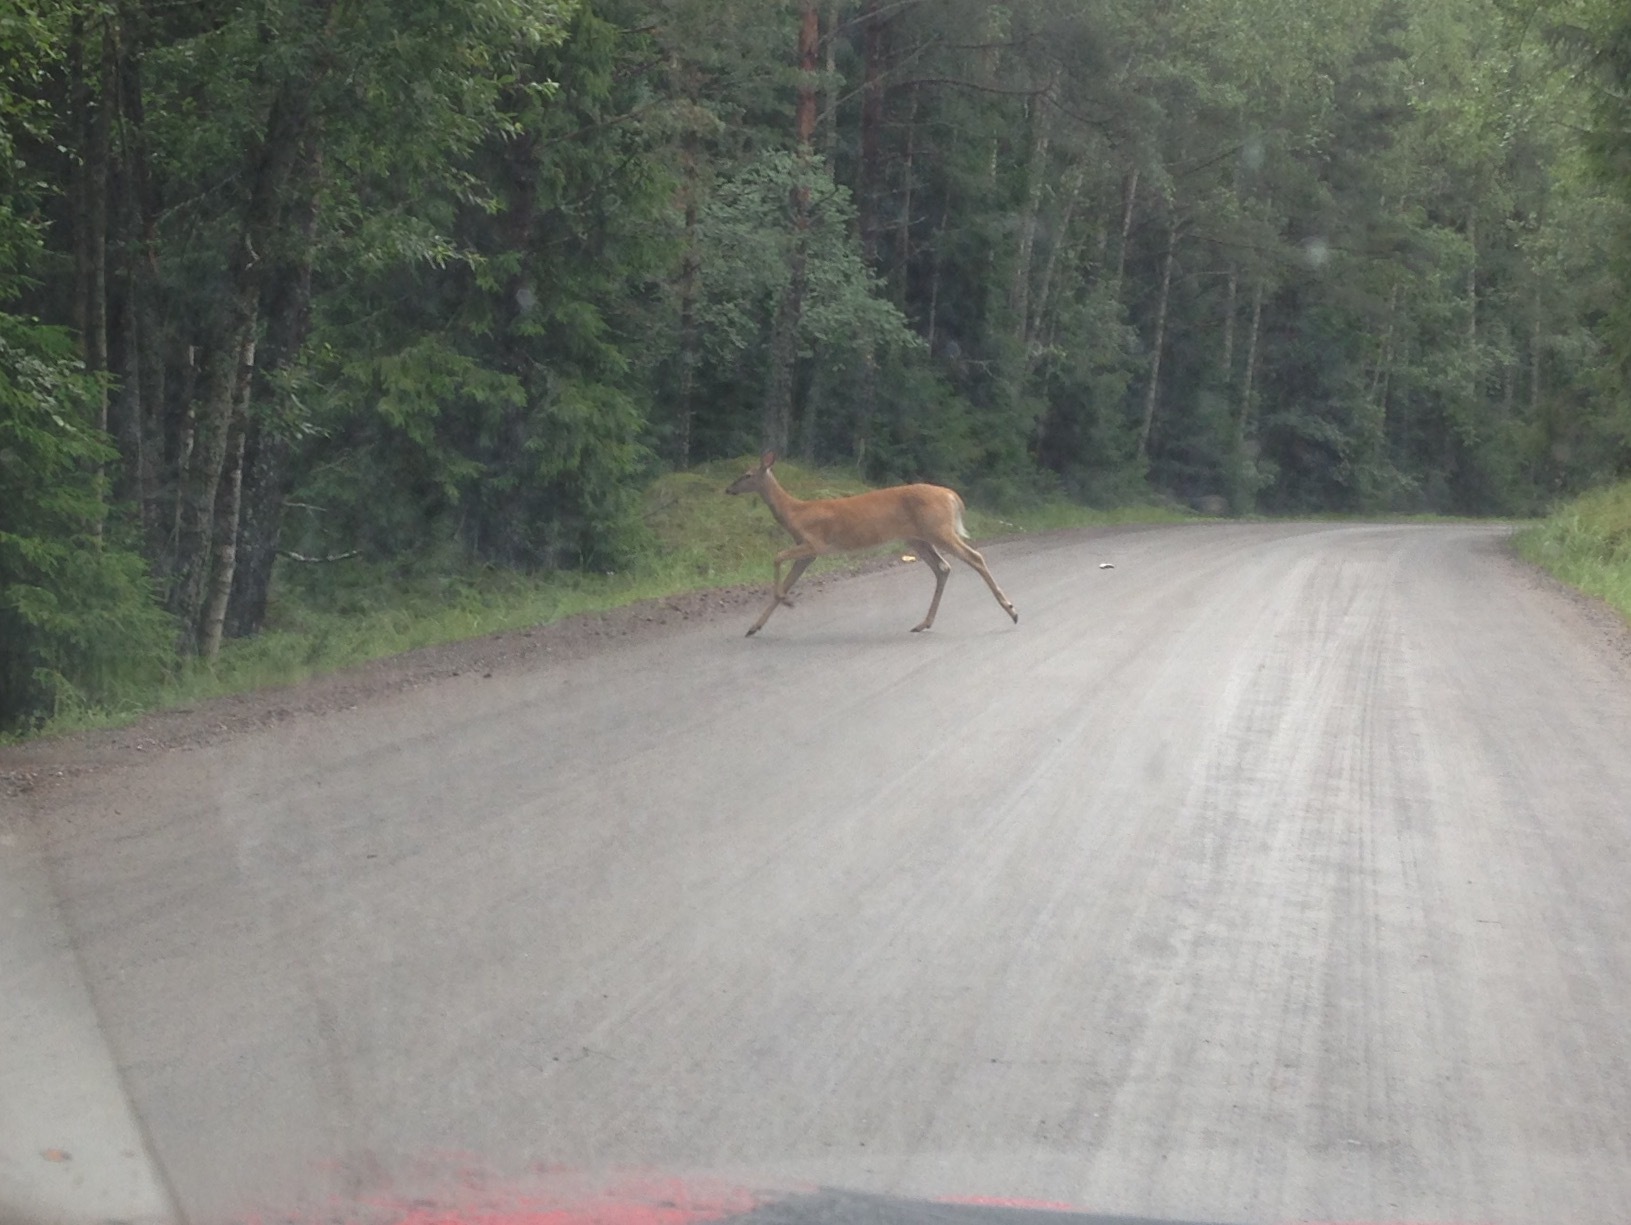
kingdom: Animalia
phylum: Chordata
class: Mammalia
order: Artiodactyla
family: Cervidae
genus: Odocoileus
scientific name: Odocoileus virginianus
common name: White-tailed deer
